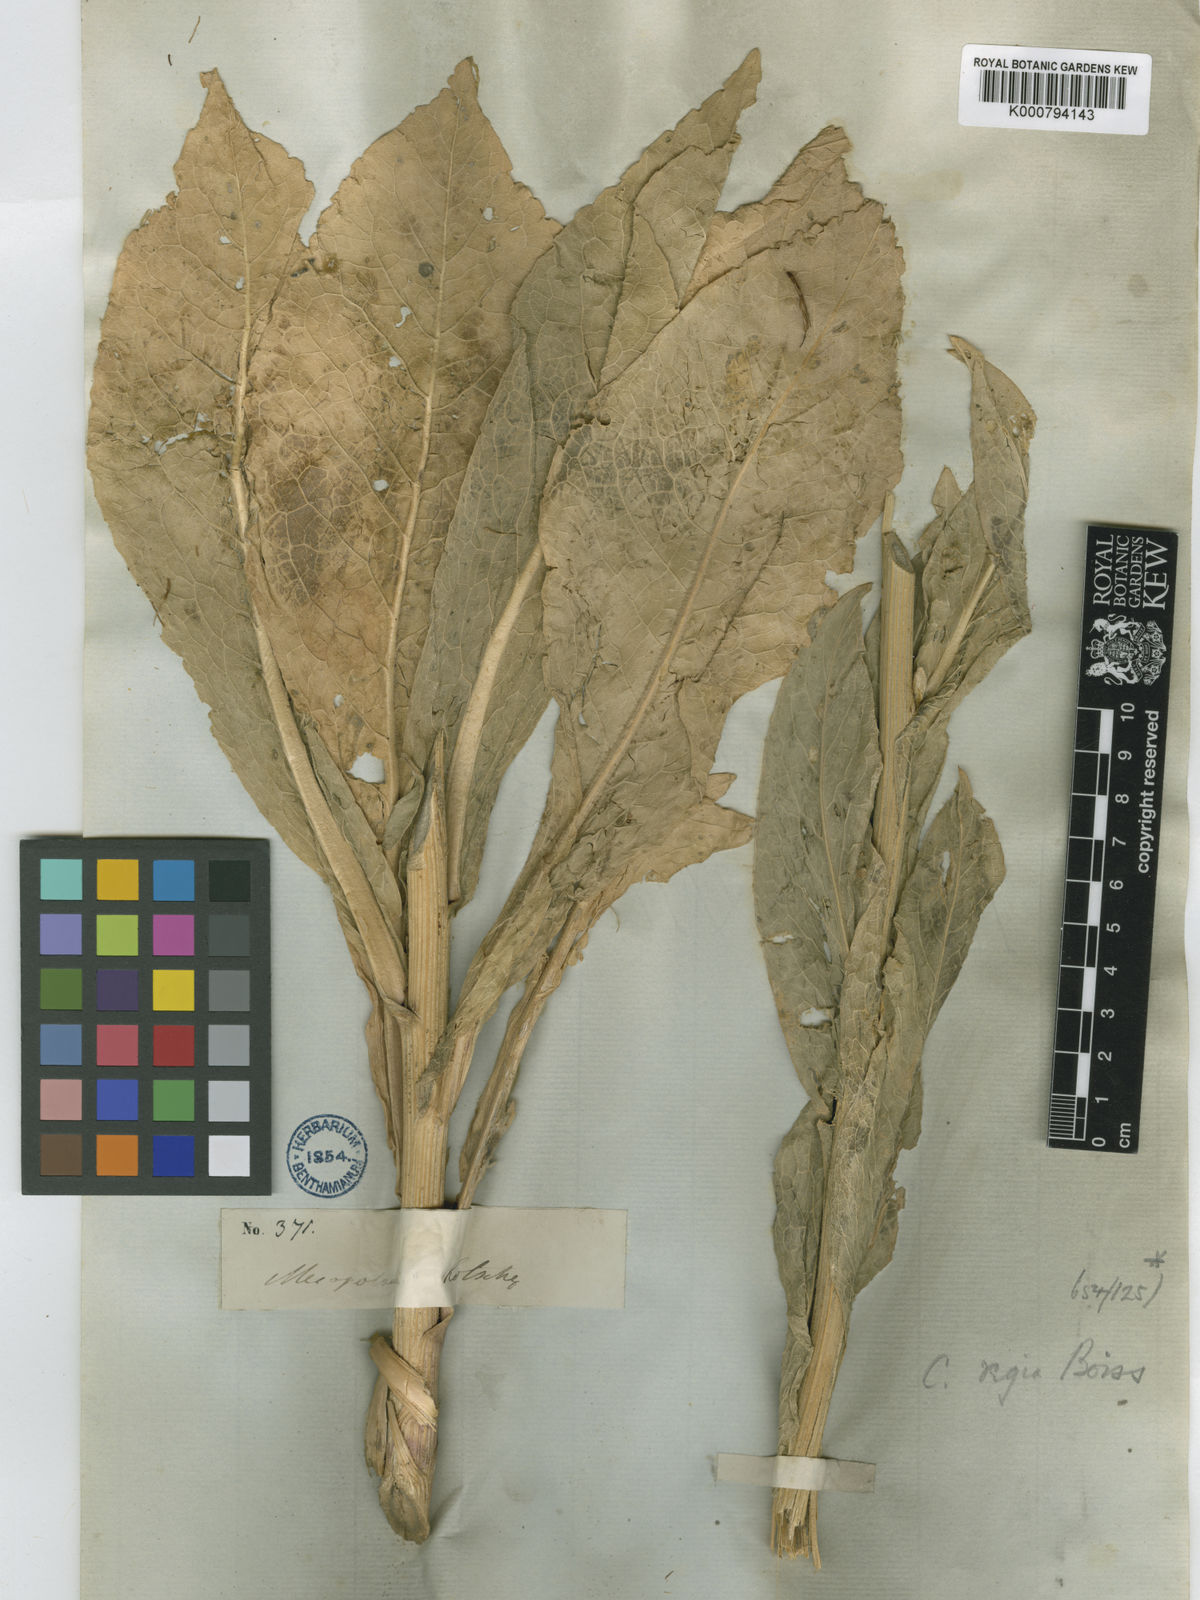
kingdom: Plantae
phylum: Tracheophyta
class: Magnoliopsida
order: Asterales
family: Asteraceae
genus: Centaurea
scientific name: Centaurea regia
